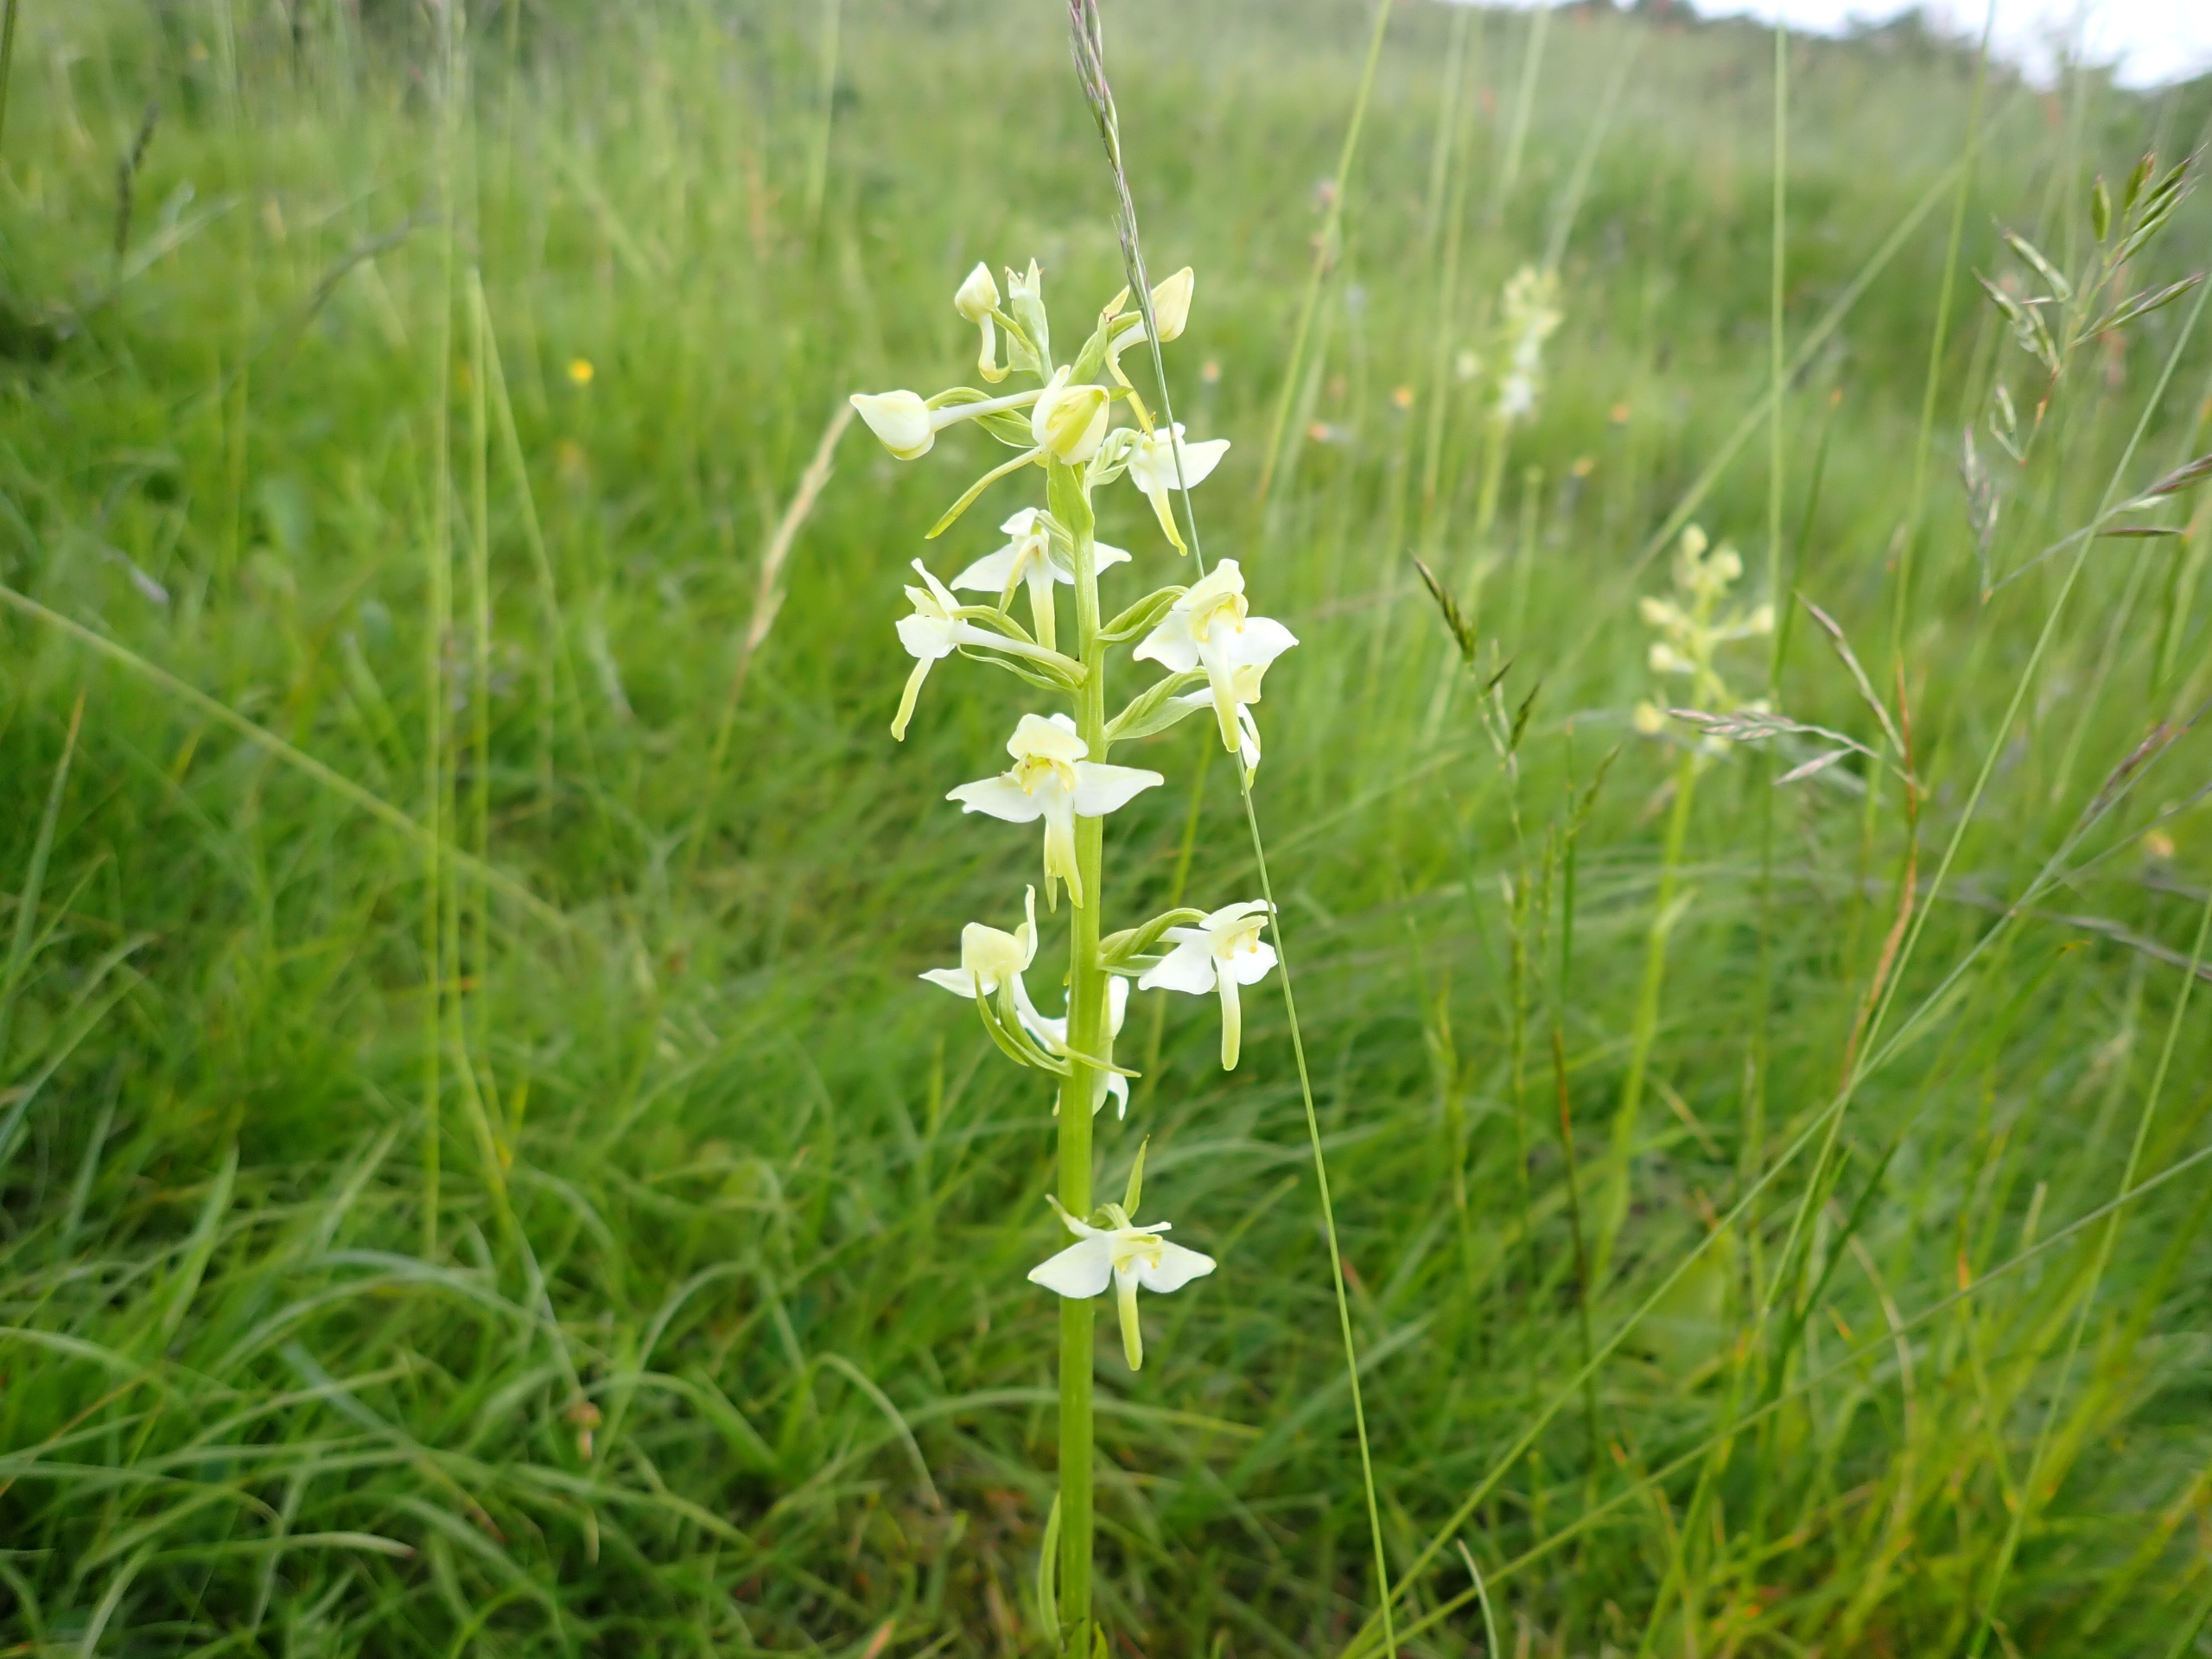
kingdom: Plantae
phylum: Tracheophyta
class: Liliopsida
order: Asparagales
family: Orchidaceae
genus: Platanthera
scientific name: Platanthera chlorantha
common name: Skov-gøgelilje
